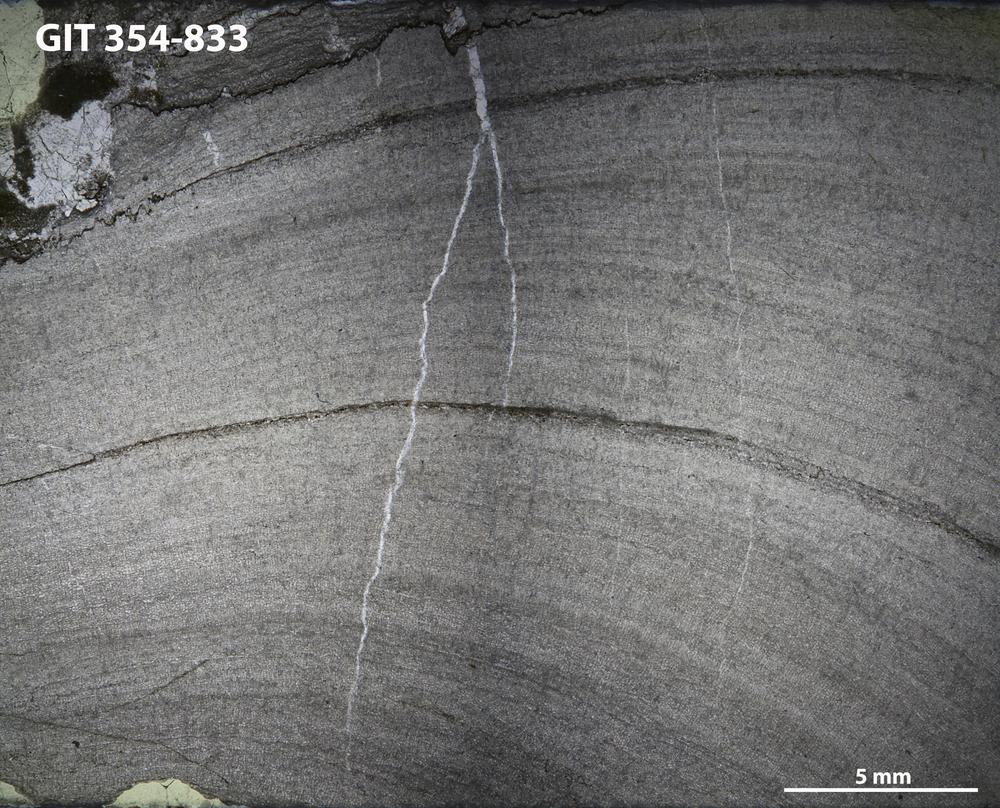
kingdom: Animalia
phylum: Porifera
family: Densastromatidae
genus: Densastroma
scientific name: Densastroma
